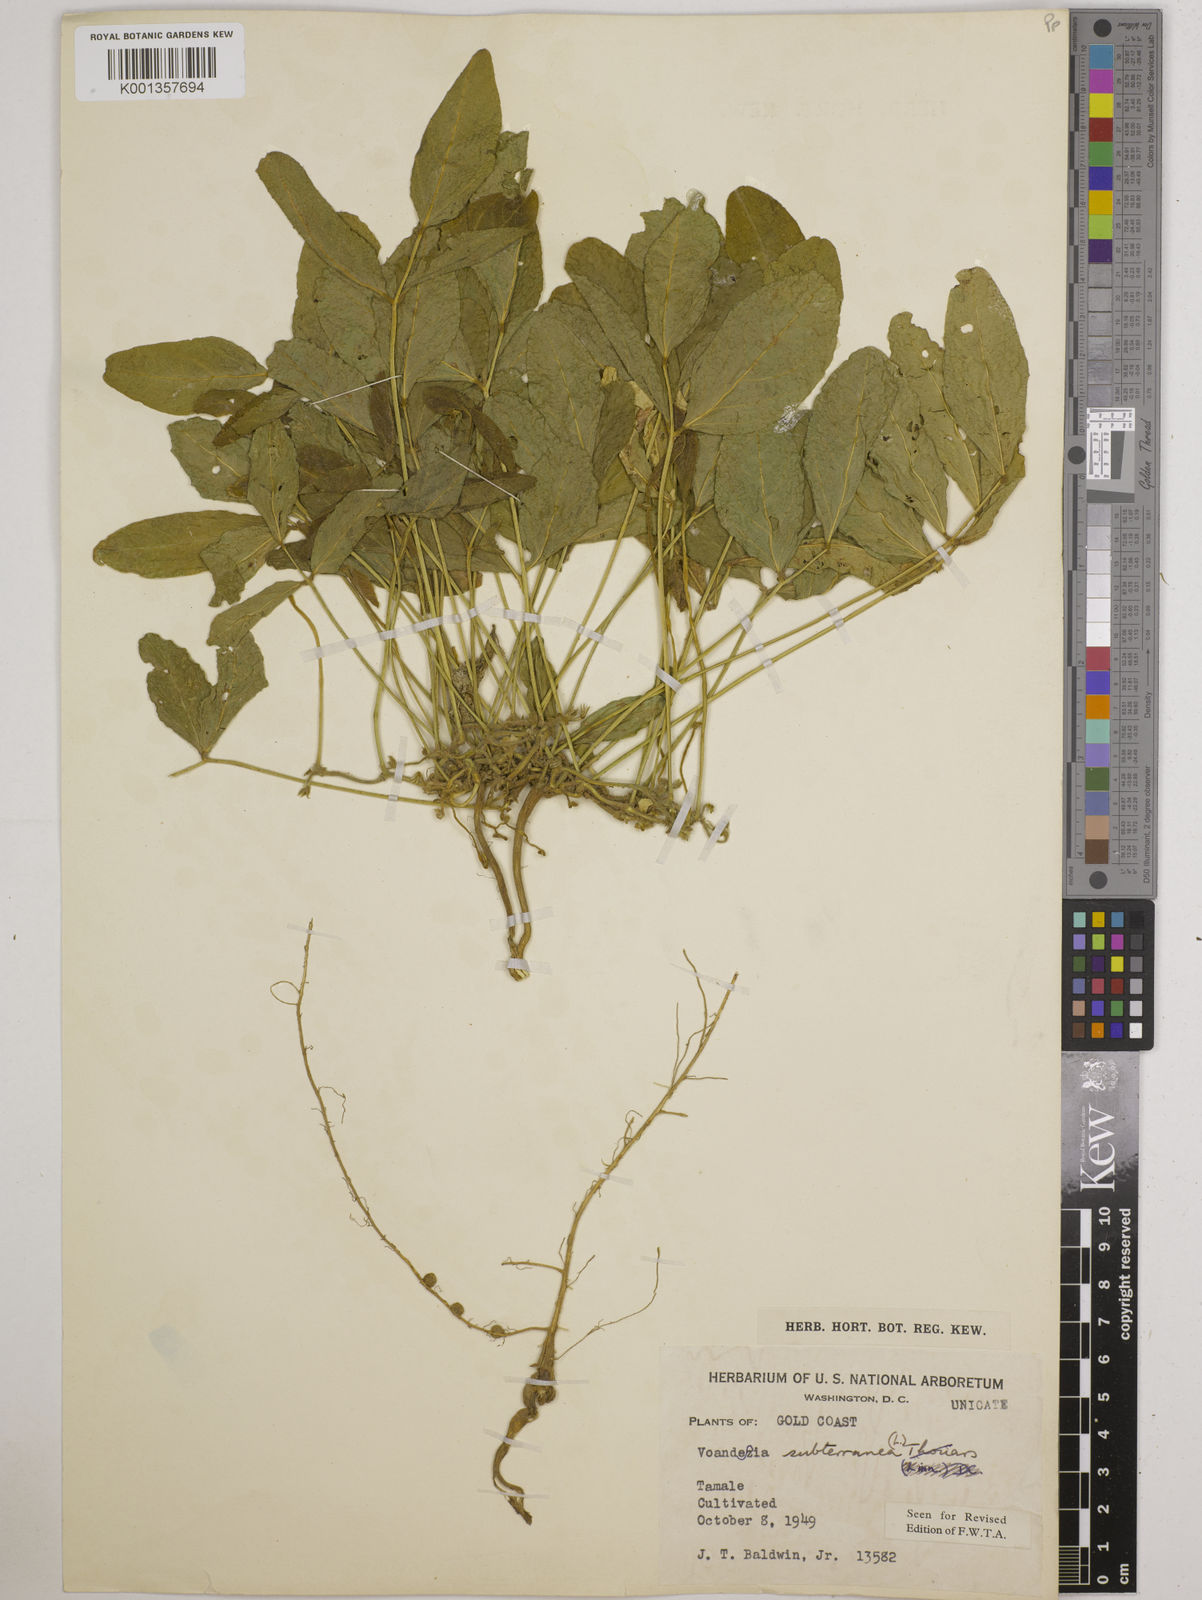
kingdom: Plantae
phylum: Tracheophyta
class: Magnoliopsida
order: Fabales
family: Fabaceae
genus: Vigna
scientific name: Vigna subterranea
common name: Bambara groundnut
